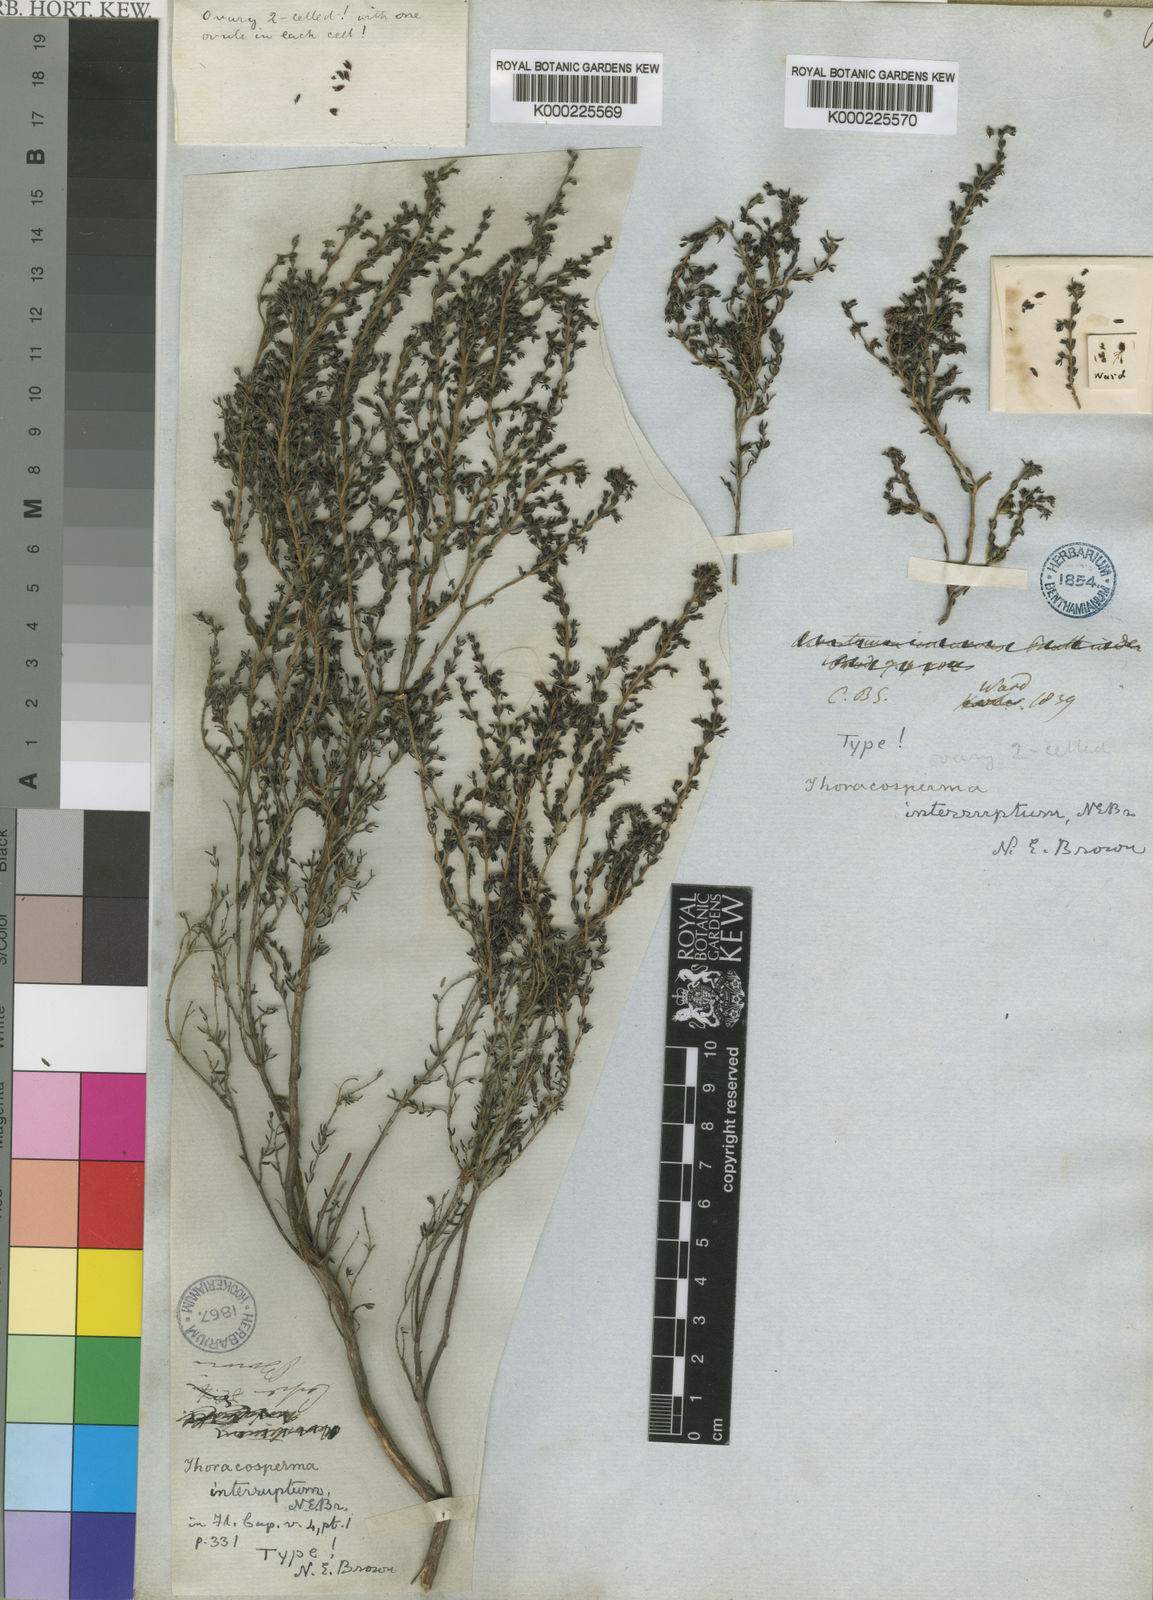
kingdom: Plantae
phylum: Tracheophyta
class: Magnoliopsida
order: Ericales
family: Ericaceae
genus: Erica
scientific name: Erica interrupta
